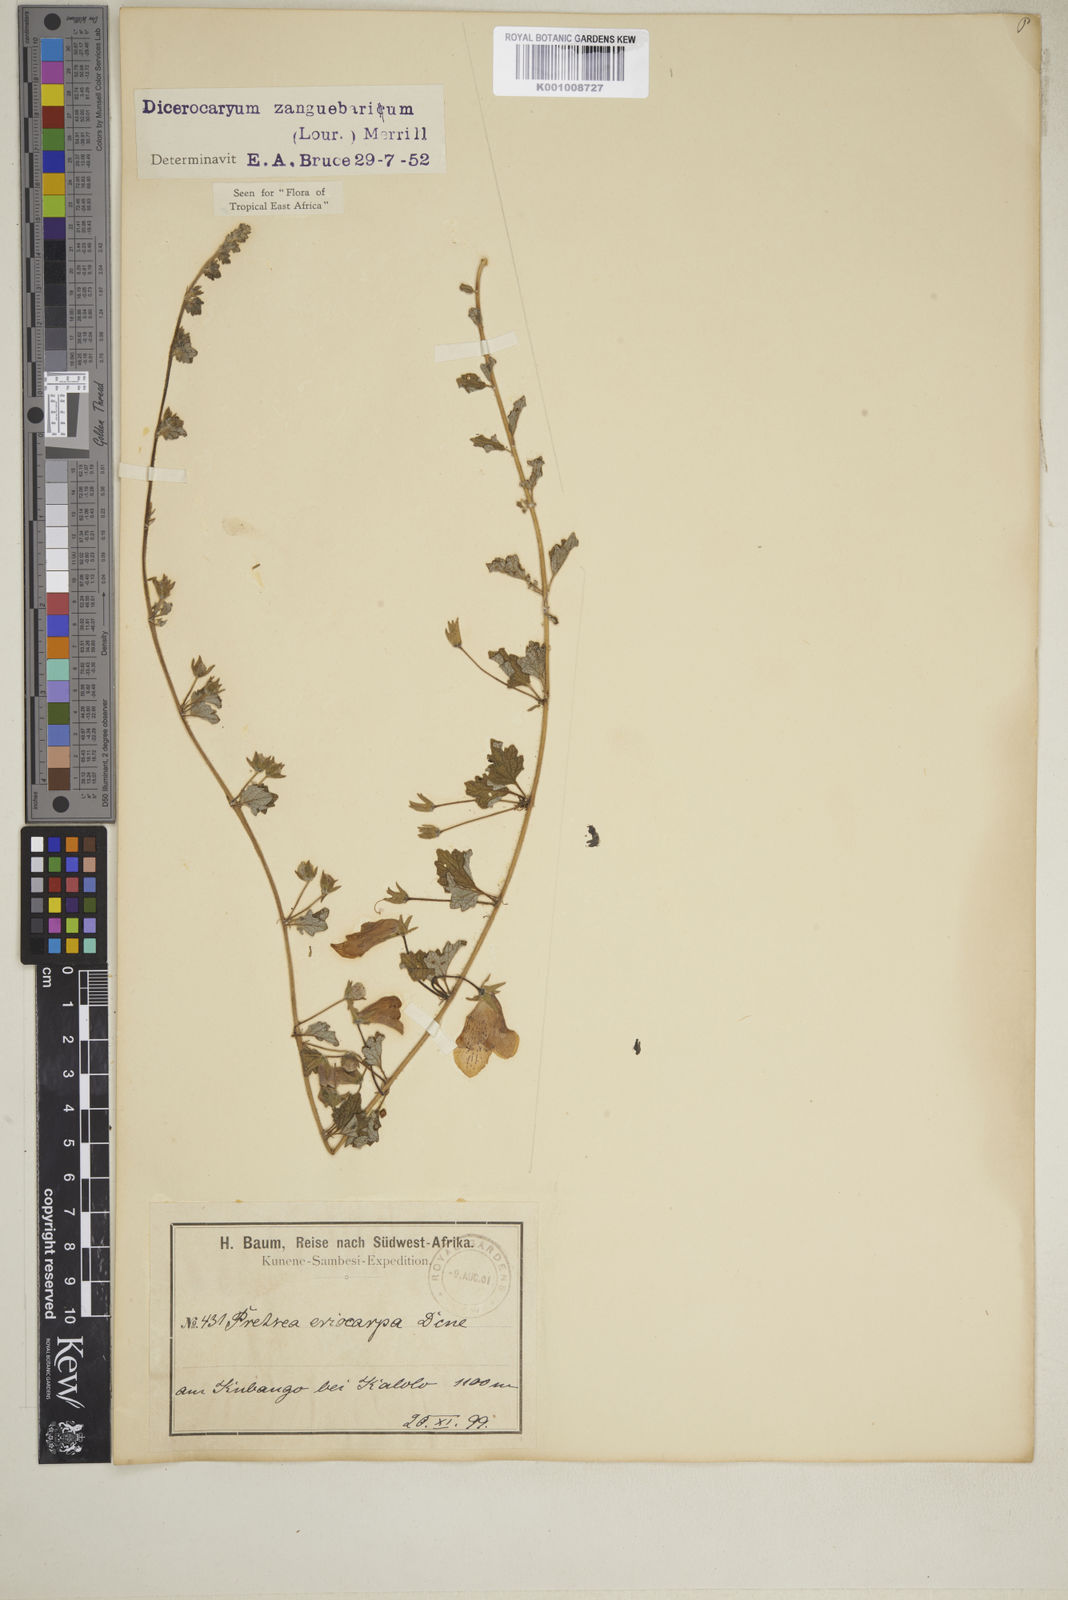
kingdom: Plantae
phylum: Tracheophyta
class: Magnoliopsida
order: Lamiales
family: Pedaliaceae
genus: Dicerocaryum
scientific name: Dicerocaryum eriocarpum
